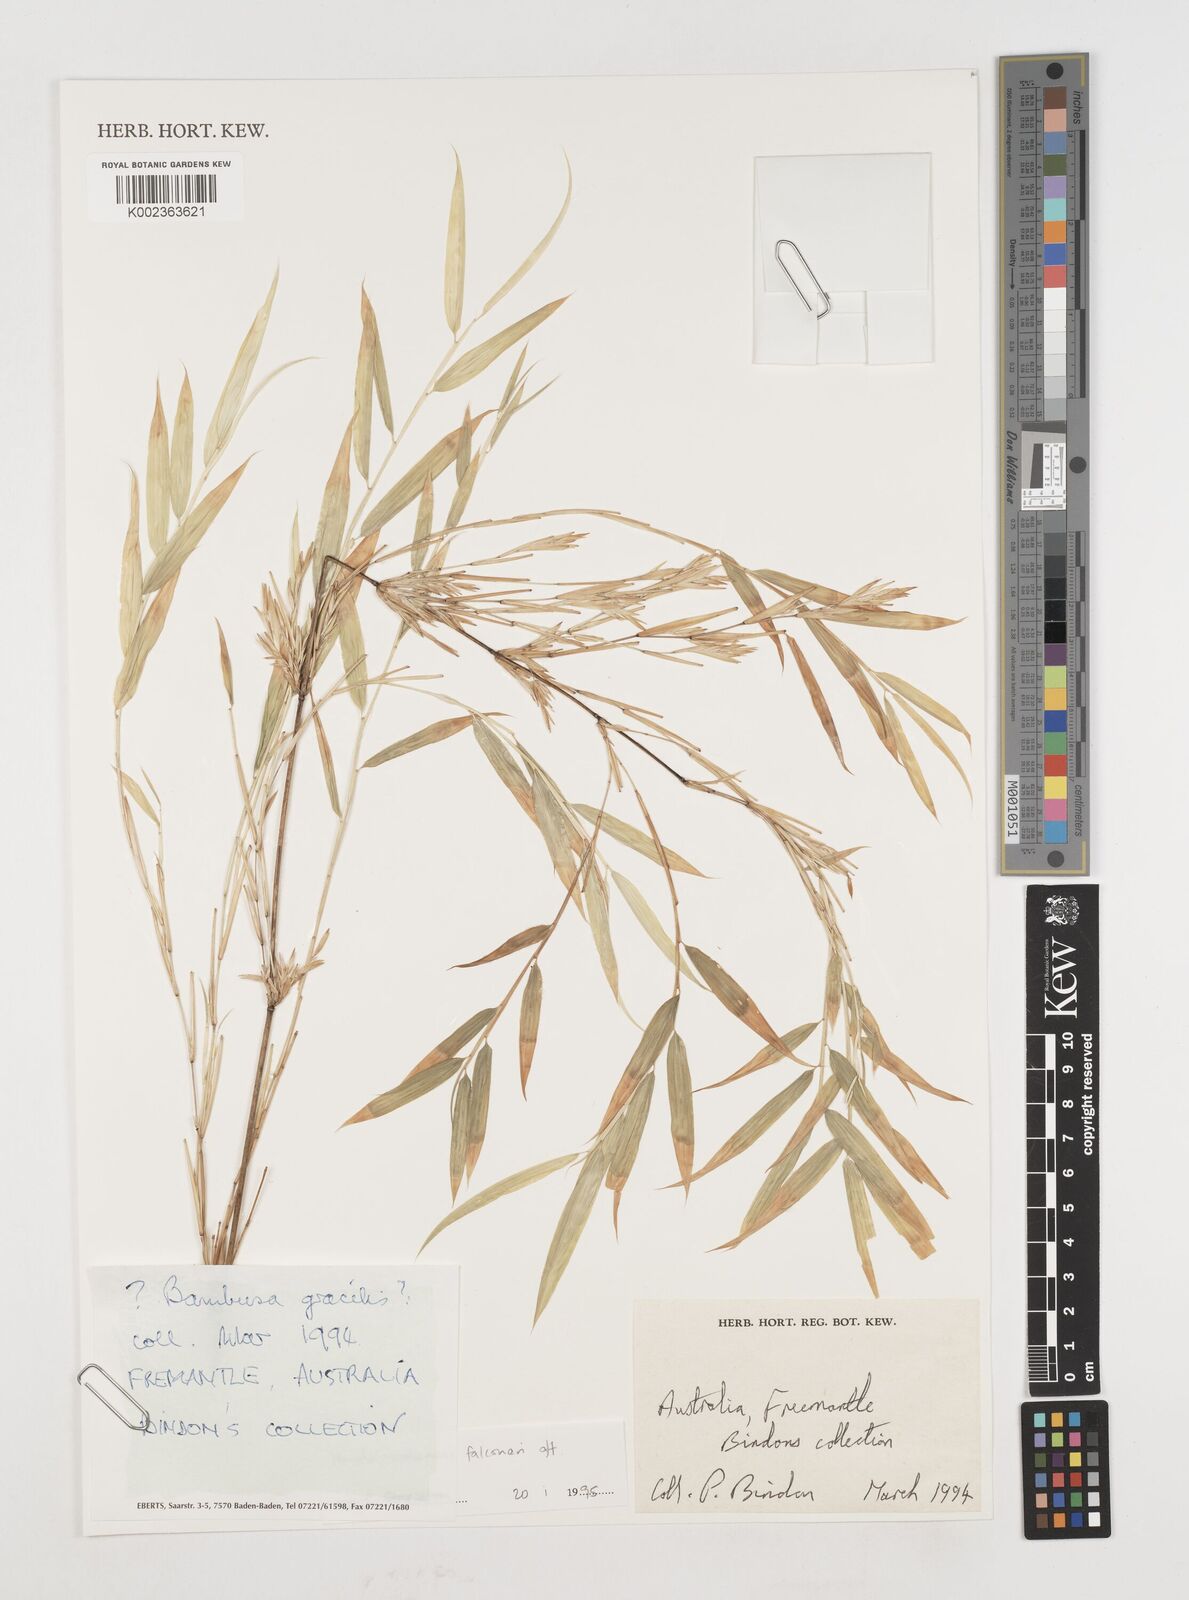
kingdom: Plantae
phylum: Tracheophyta
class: Liliopsida
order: Poales
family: Poaceae
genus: Himalayacalamus
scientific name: Himalayacalamus falconeri
